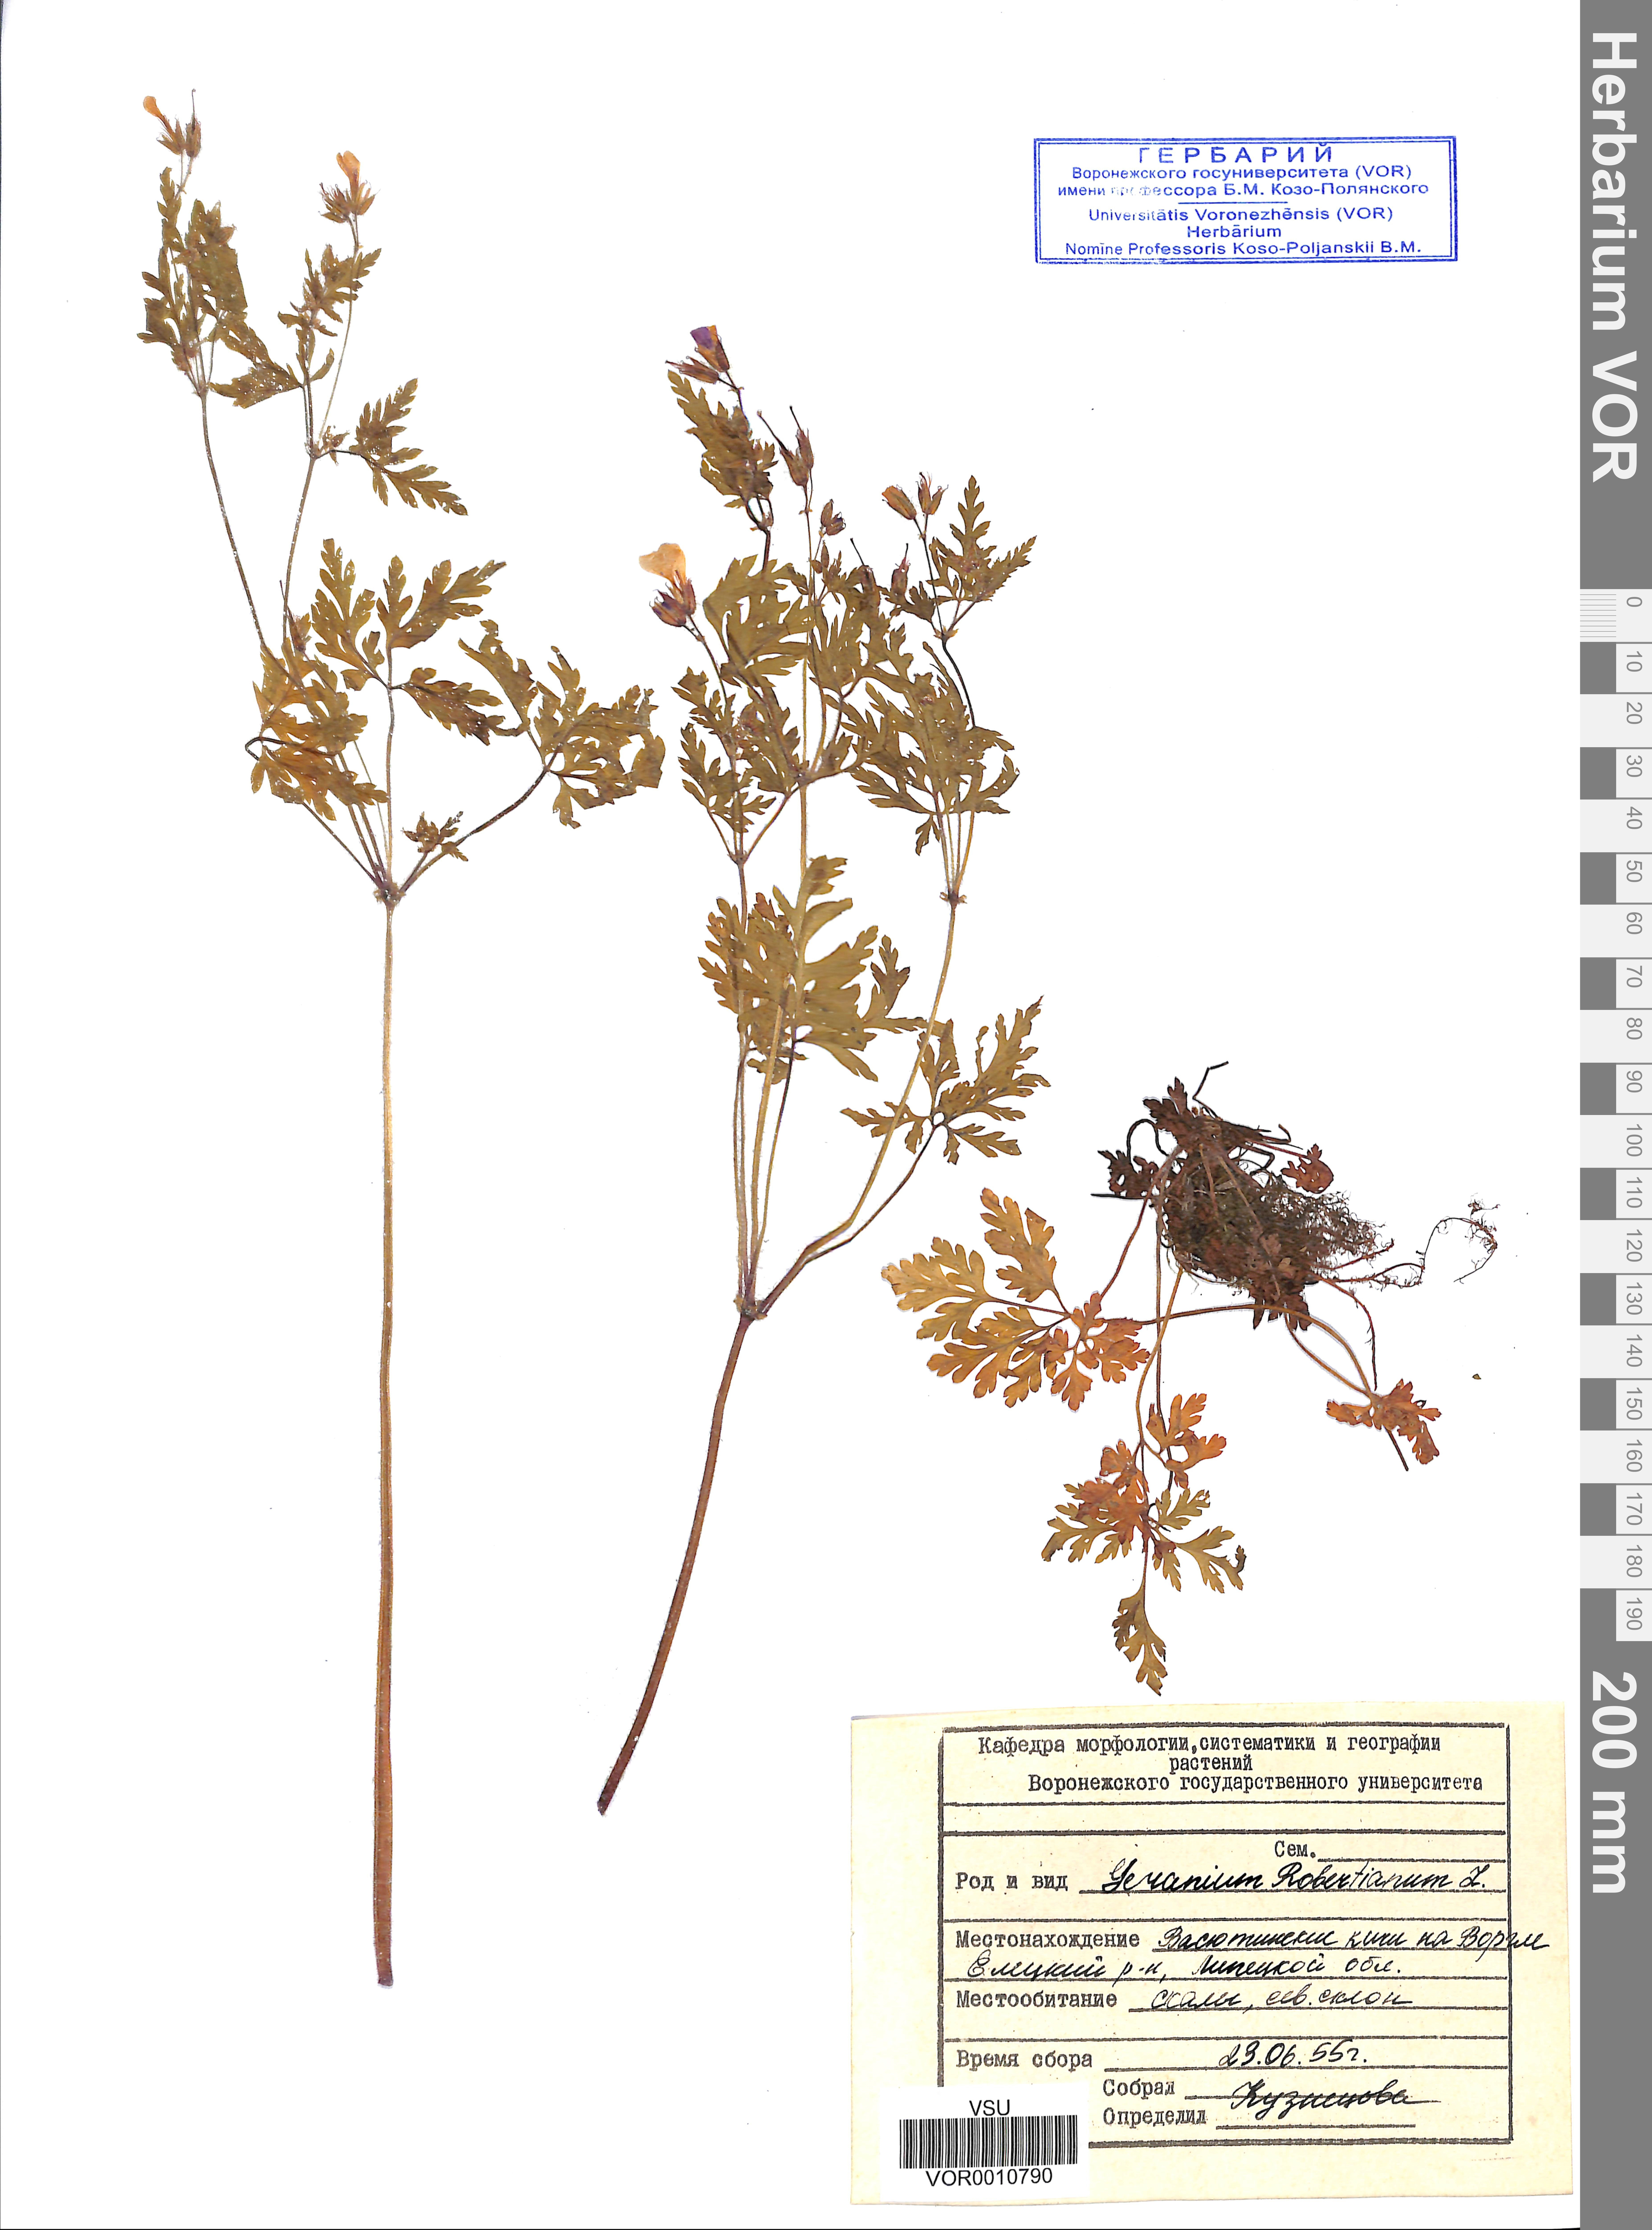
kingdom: Plantae
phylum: Tracheophyta
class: Magnoliopsida
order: Geraniales
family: Geraniaceae
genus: Geranium
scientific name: Geranium robertianum
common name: Herb-robert
